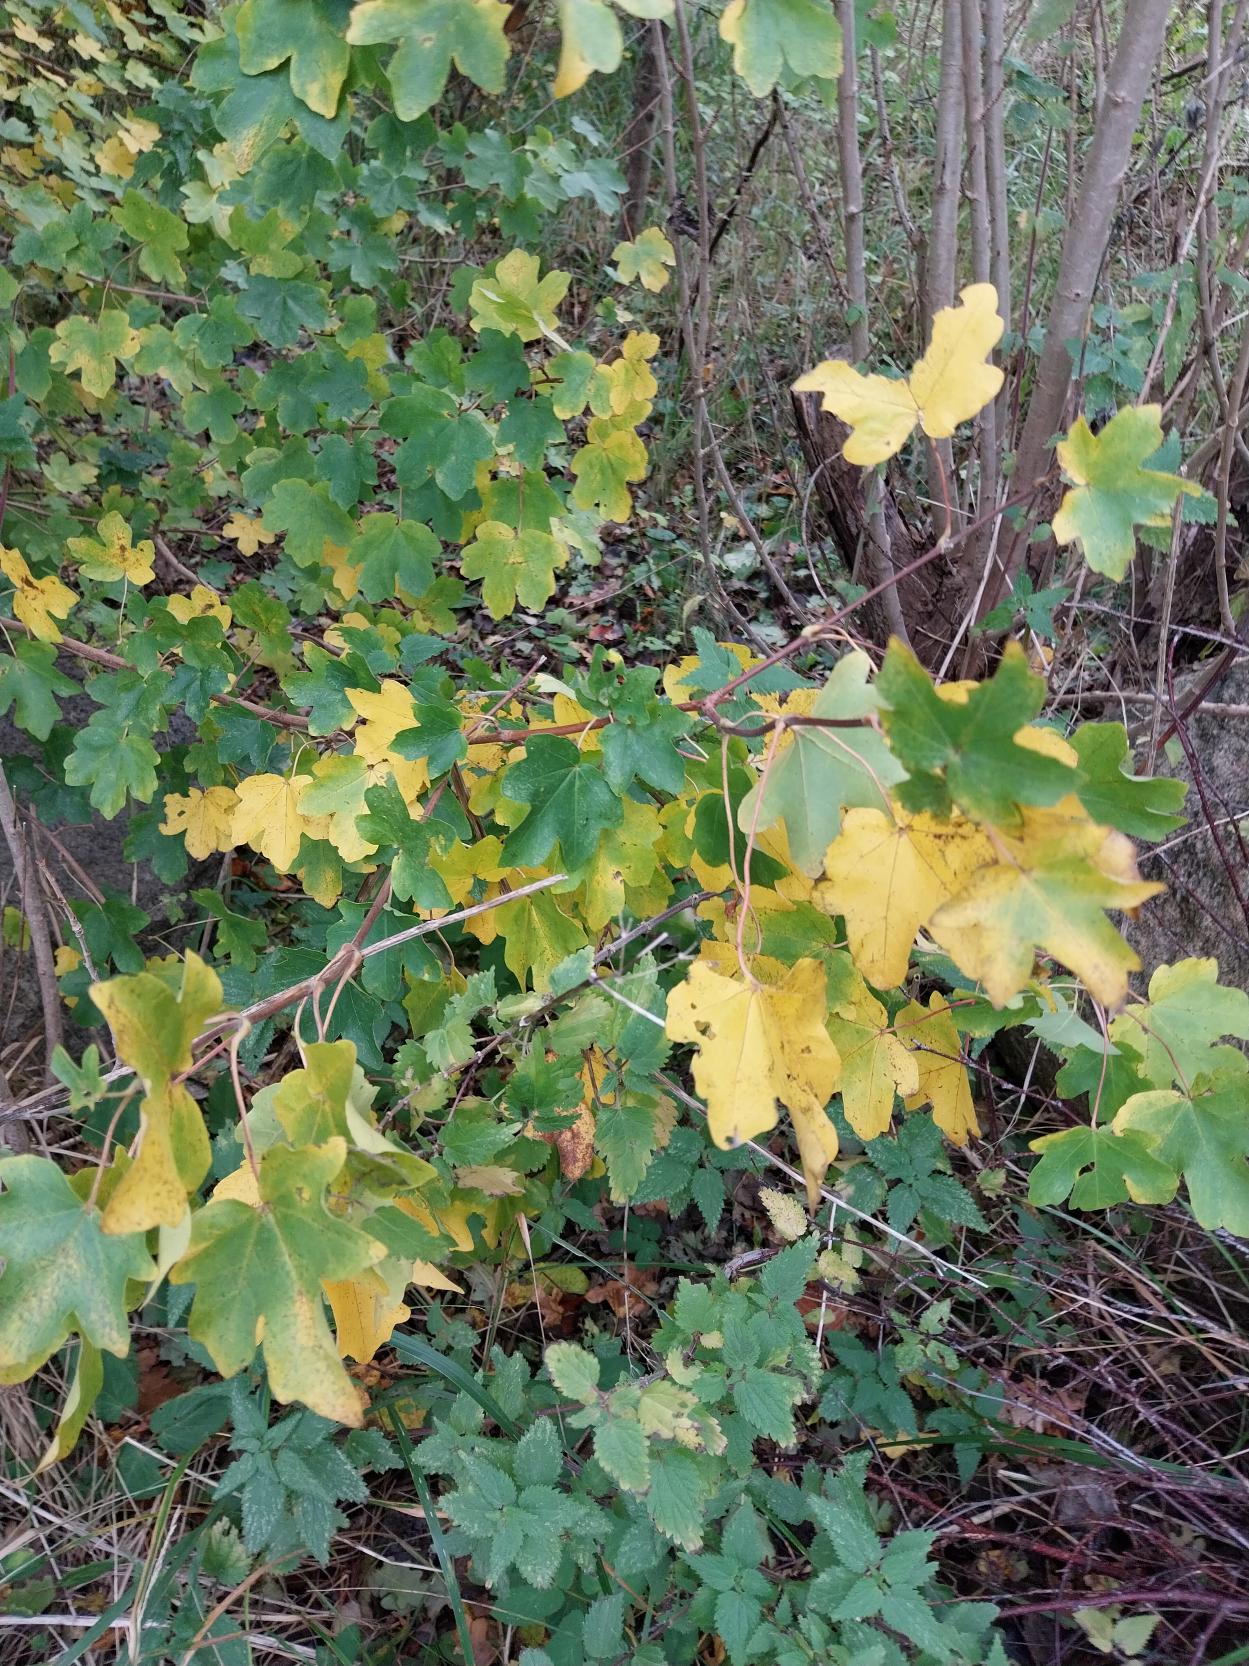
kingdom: Plantae
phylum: Tracheophyta
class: Magnoliopsida
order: Sapindales
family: Sapindaceae
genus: Acer
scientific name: Acer campestre
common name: Navr
